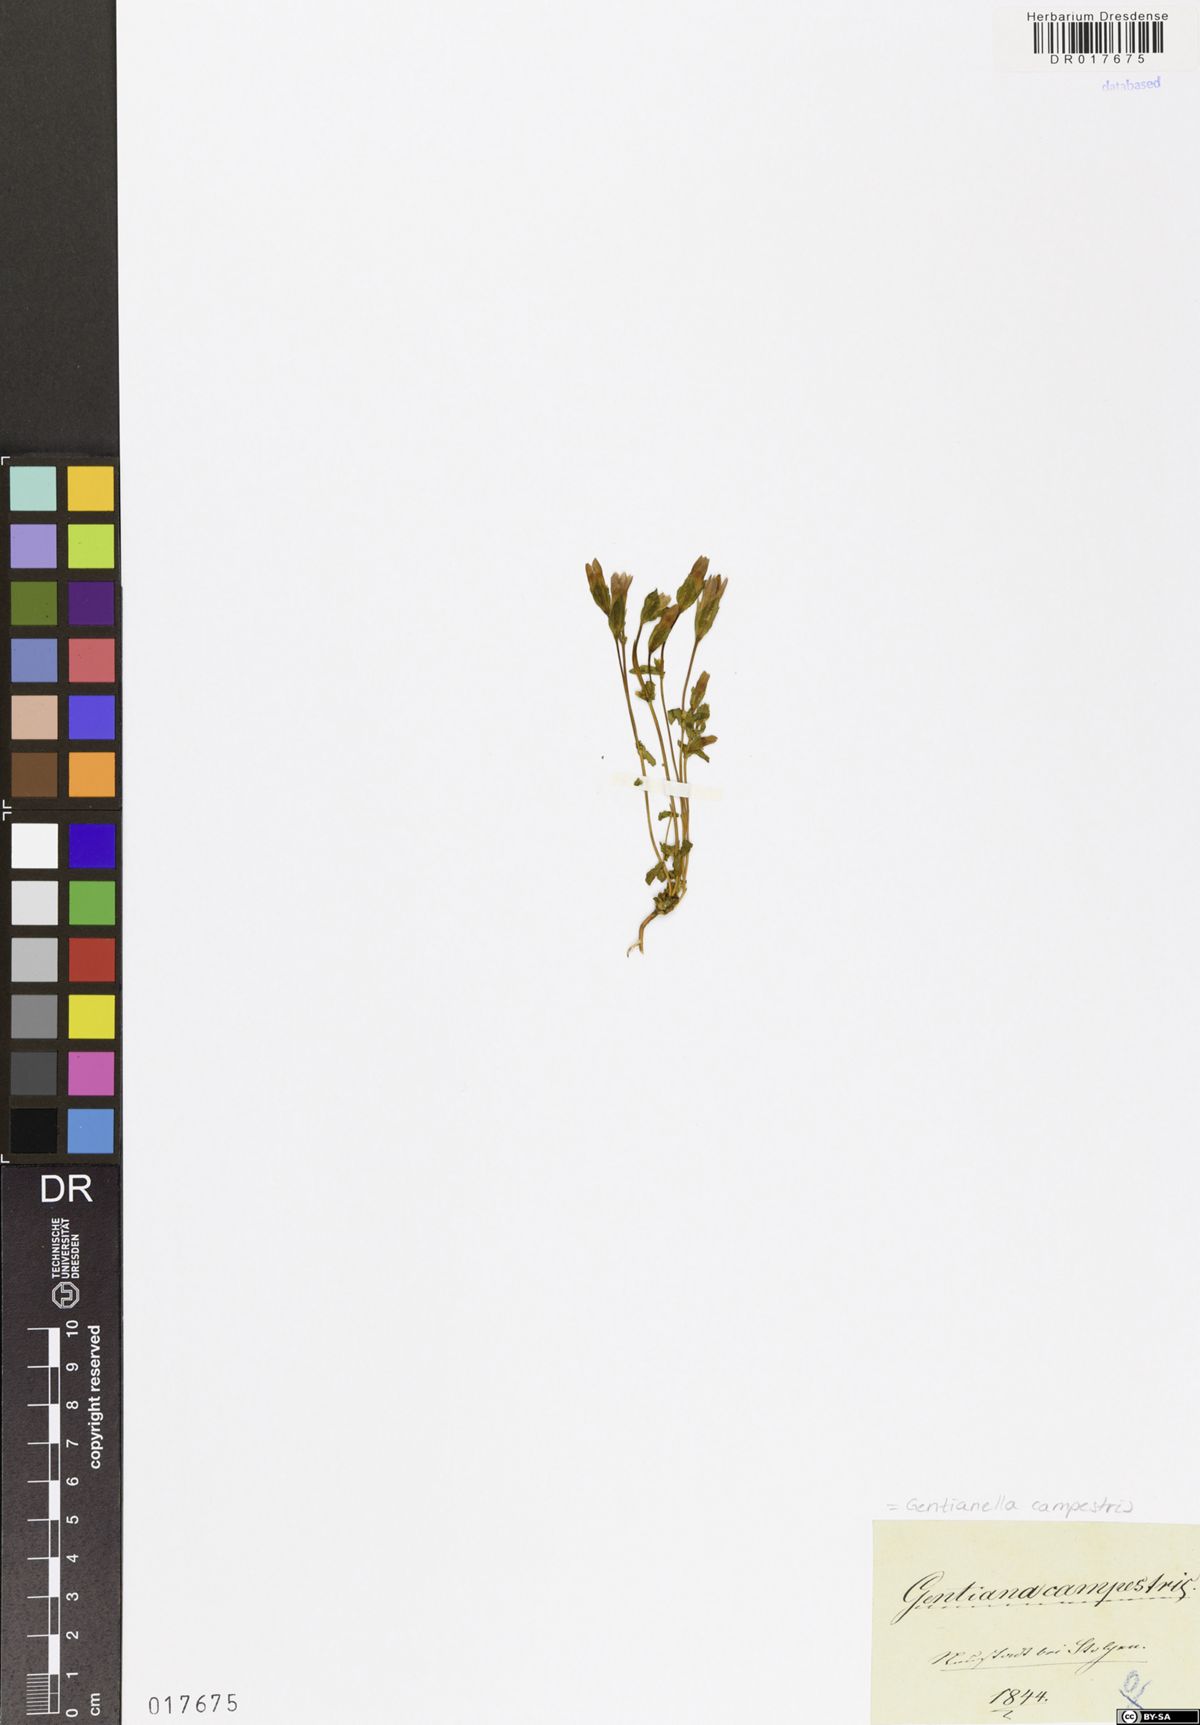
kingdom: Plantae
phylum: Tracheophyta
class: Magnoliopsida
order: Gentianales
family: Gentianaceae
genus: Gentianella
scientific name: Gentianella campestris
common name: Field gentian
